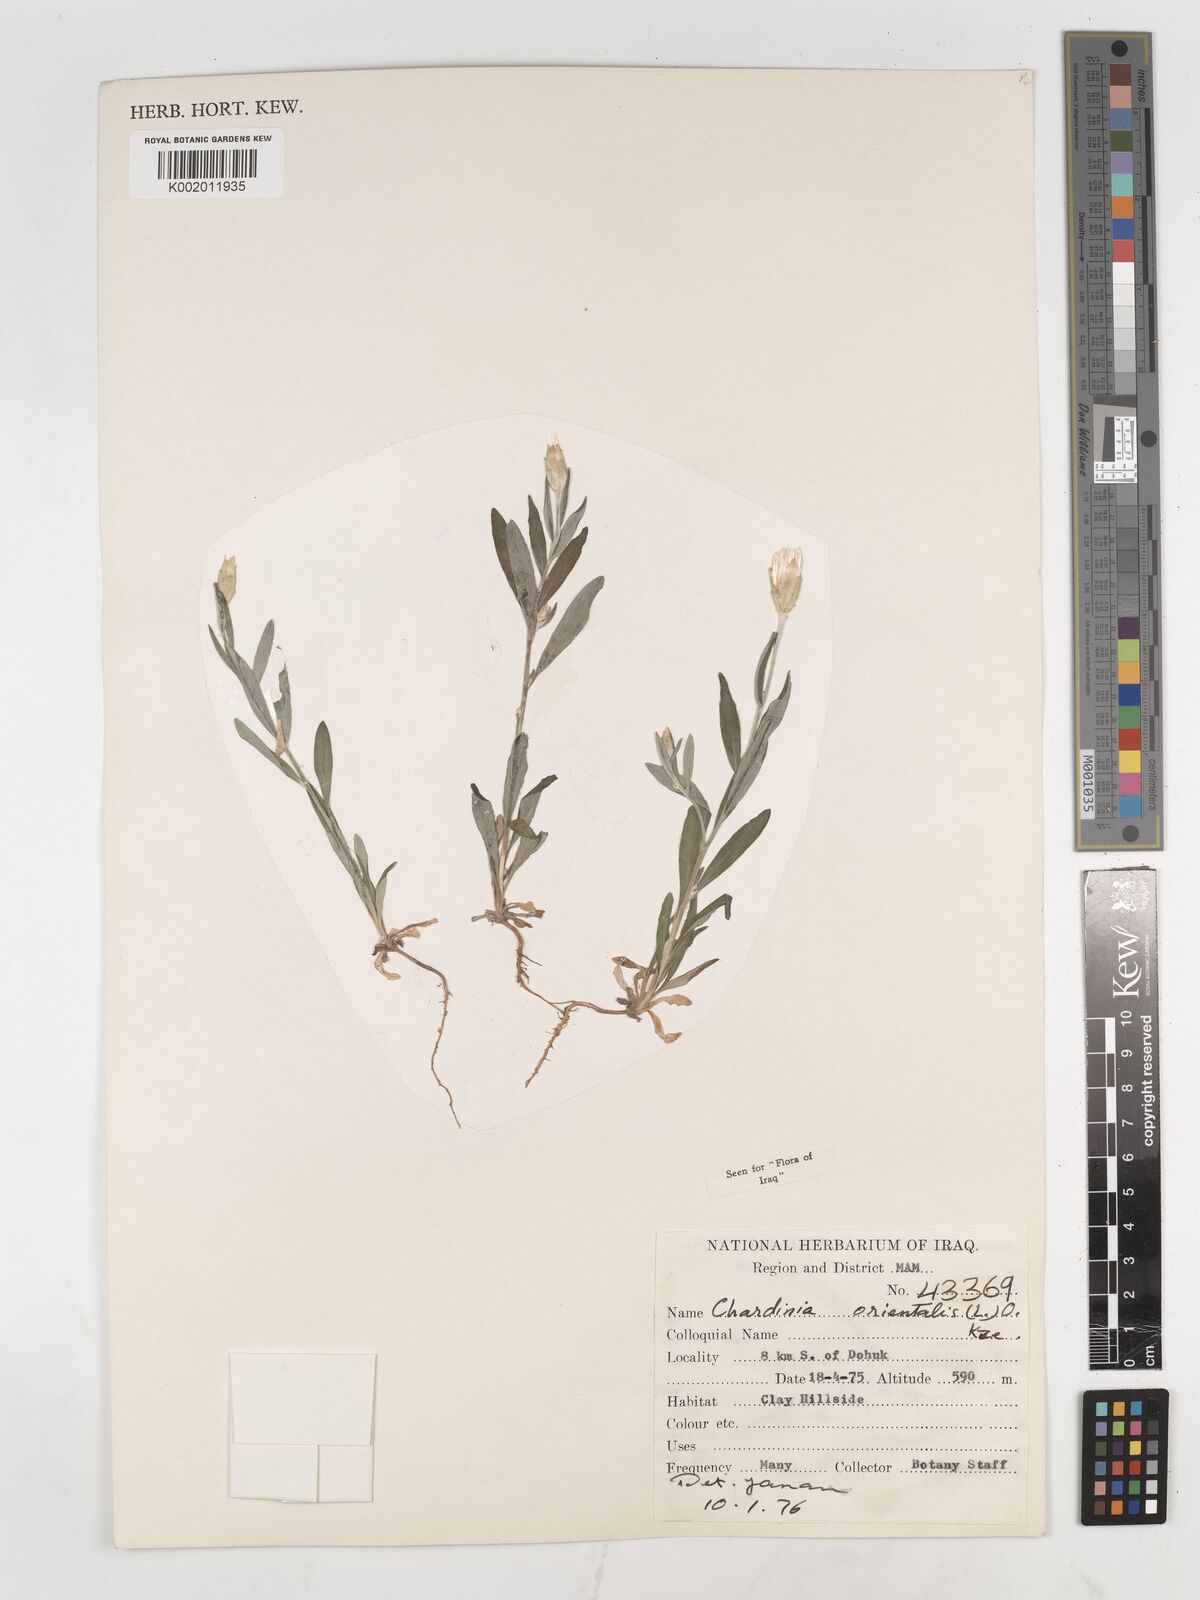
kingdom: Plantae
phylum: Tracheophyta
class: Magnoliopsida
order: Asterales
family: Asteraceae
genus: Chardinia
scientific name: Chardinia orientalis
